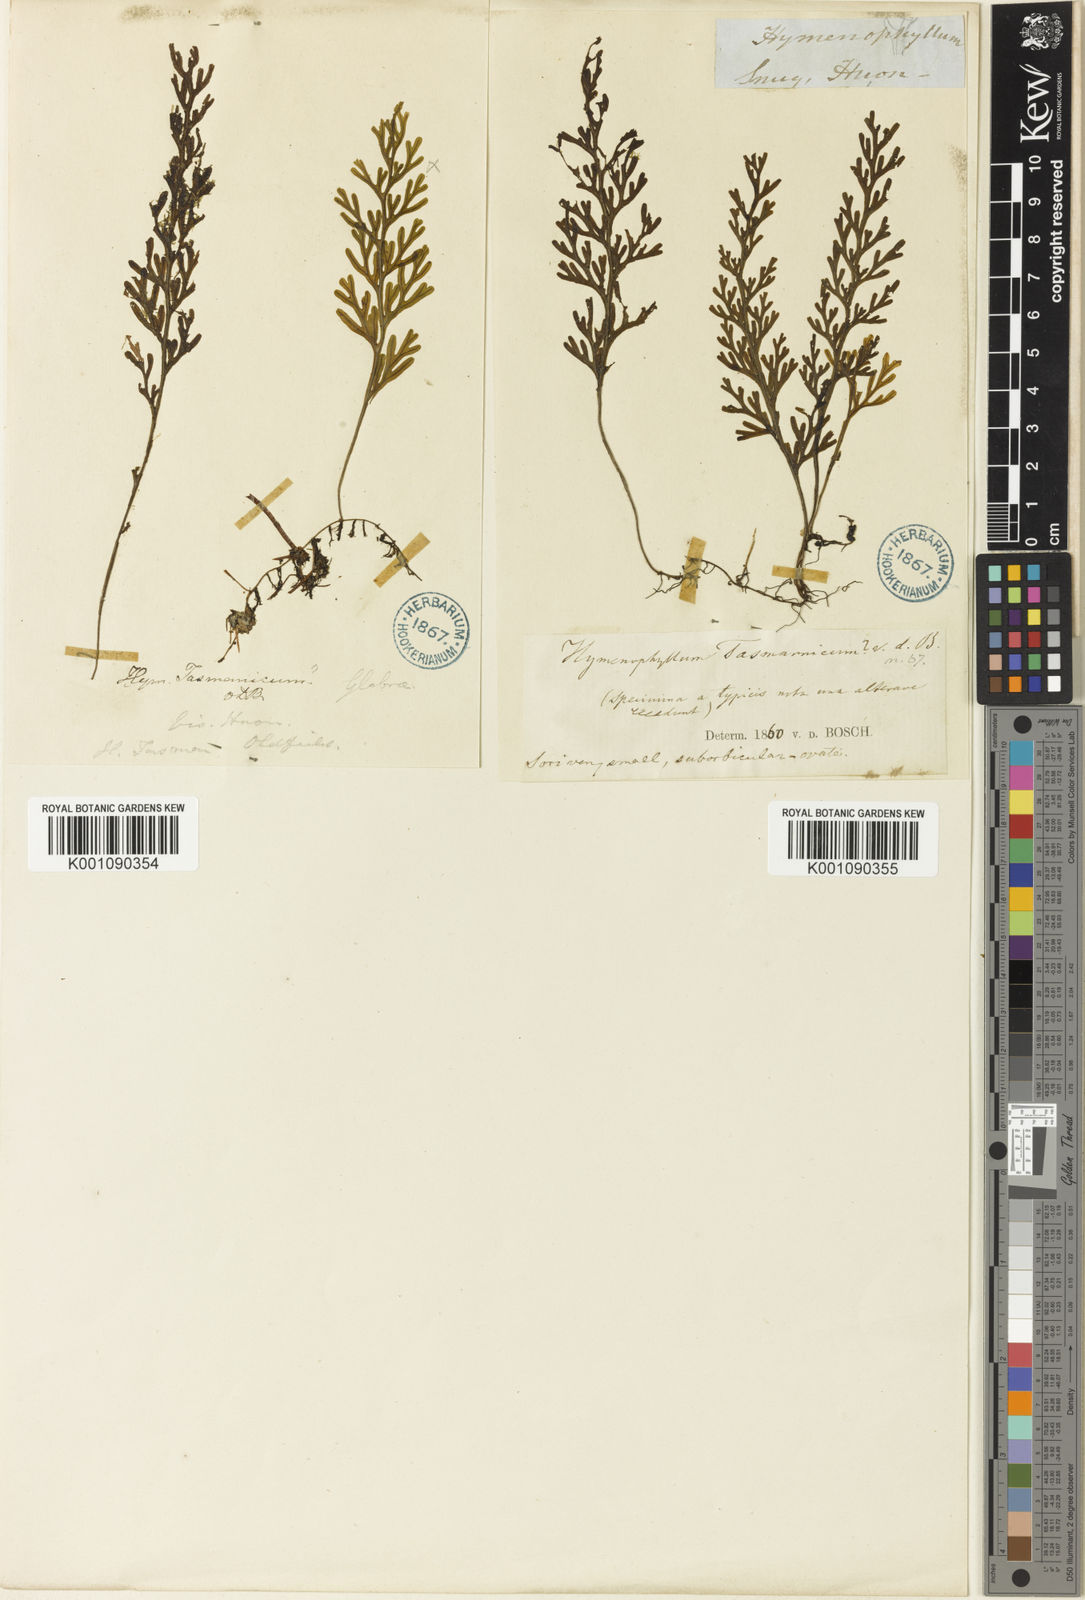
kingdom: Plantae
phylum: Tracheophyta
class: Polypodiopsida
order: Hymenophyllales
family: Hymenophyllaceae
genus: Hymenophyllum
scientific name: Hymenophyllum australe
